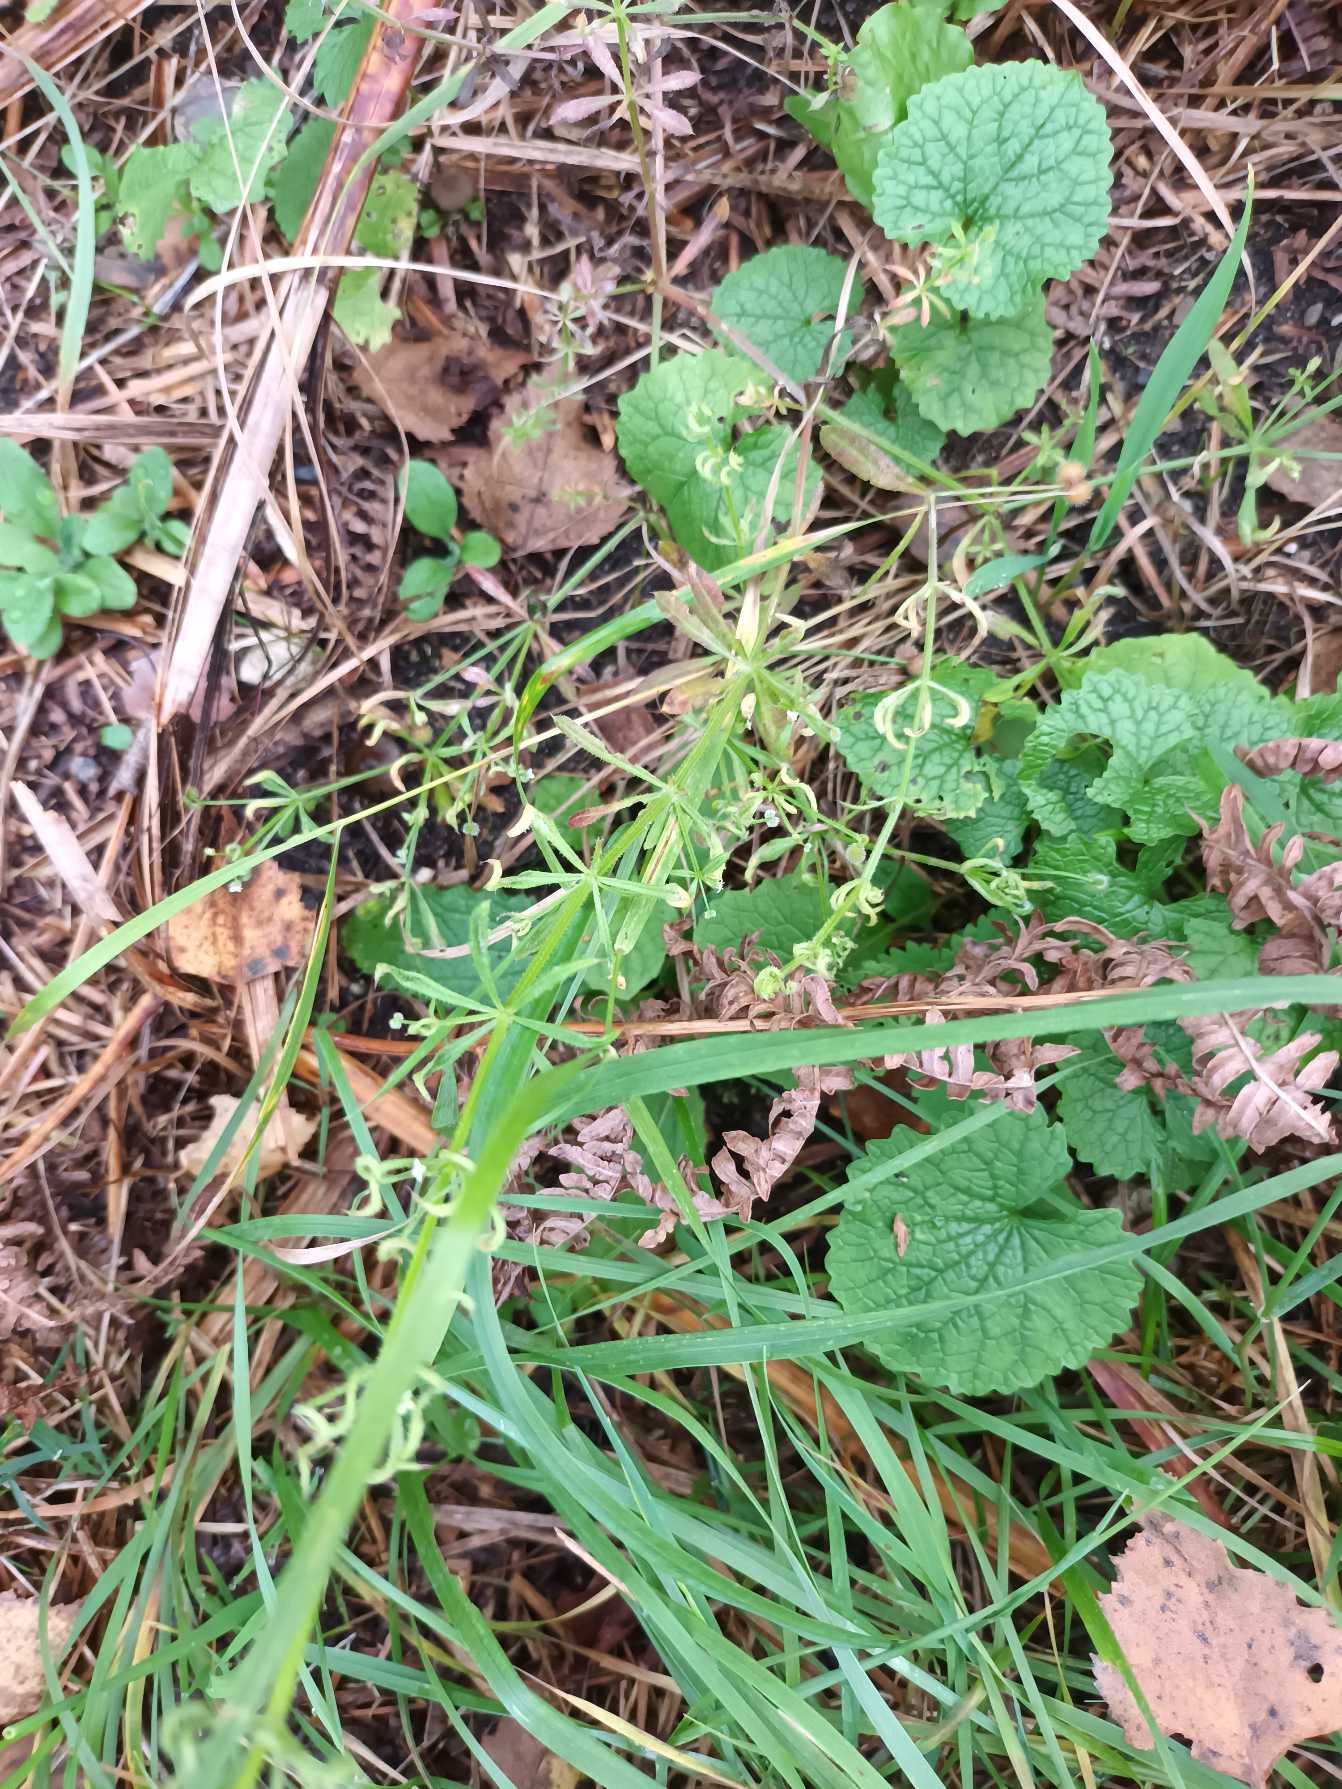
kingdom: Plantae
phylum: Tracheophyta
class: Magnoliopsida
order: Gentianales
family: Rubiaceae
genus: Galium
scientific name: Galium aparine
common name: Burre-snerre
